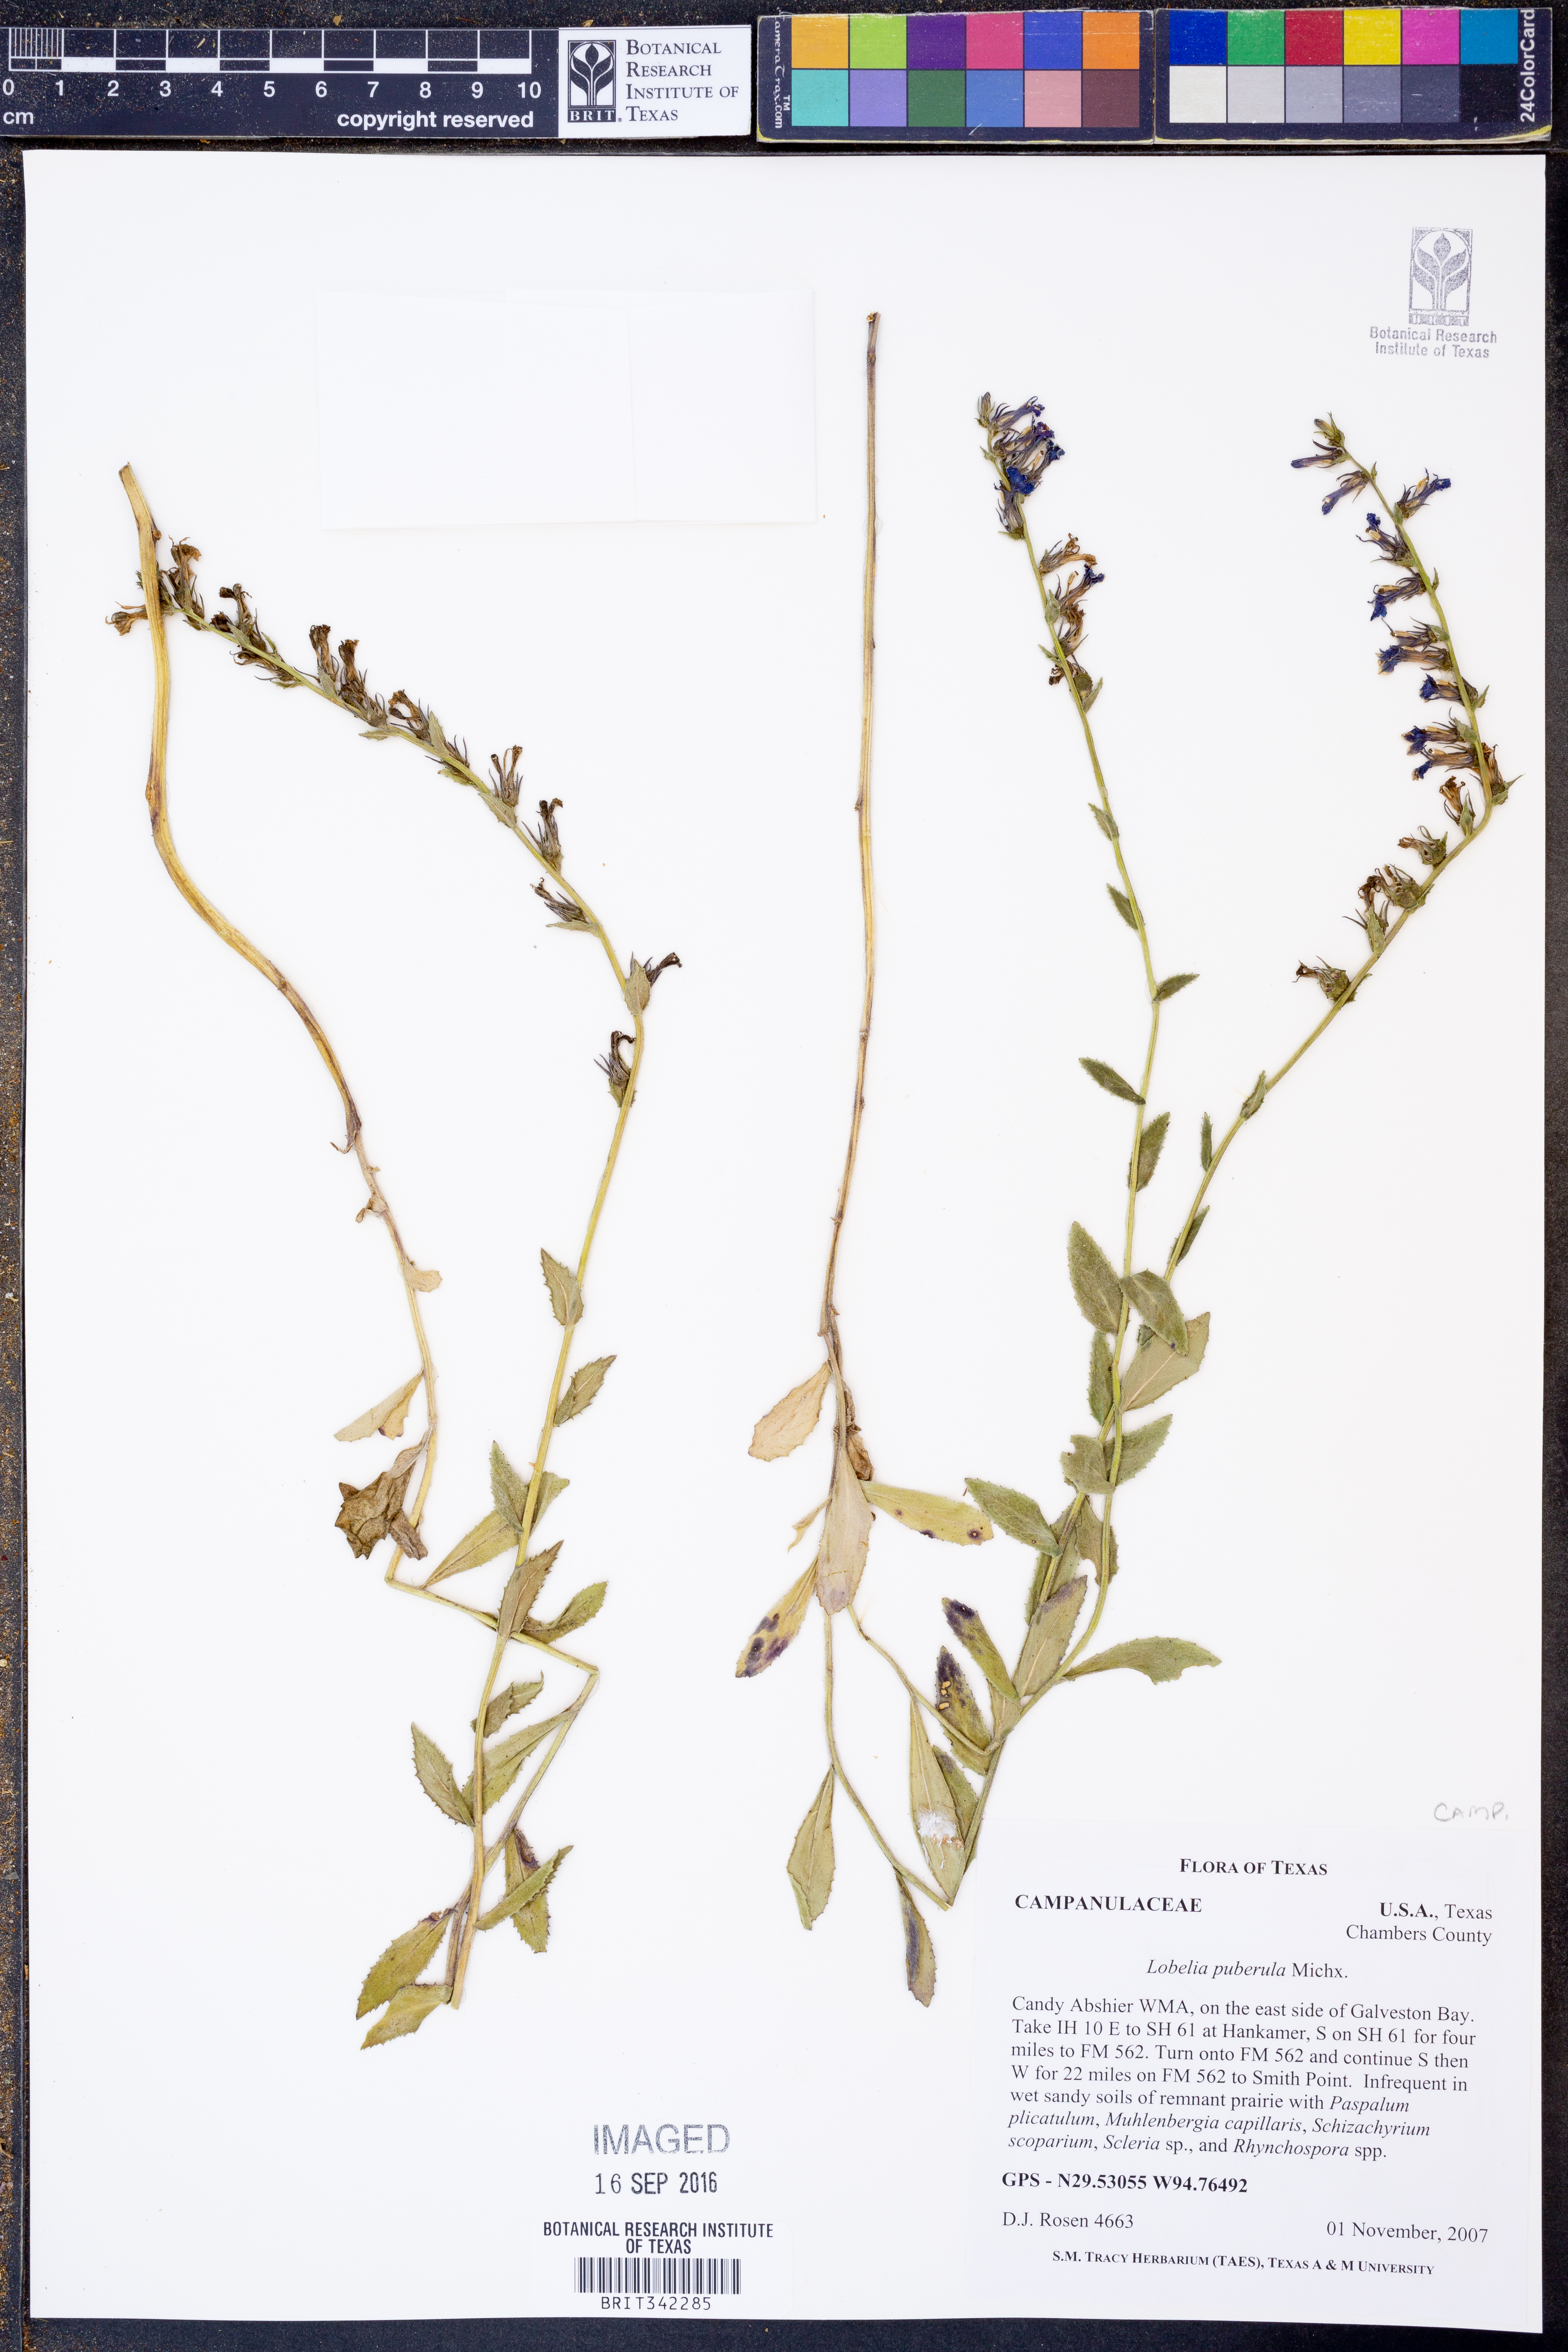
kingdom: Plantae
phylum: Tracheophyta
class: Magnoliopsida
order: Asterales
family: Campanulaceae
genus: Lobelia
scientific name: Lobelia puberula
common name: Purple dewdrop
